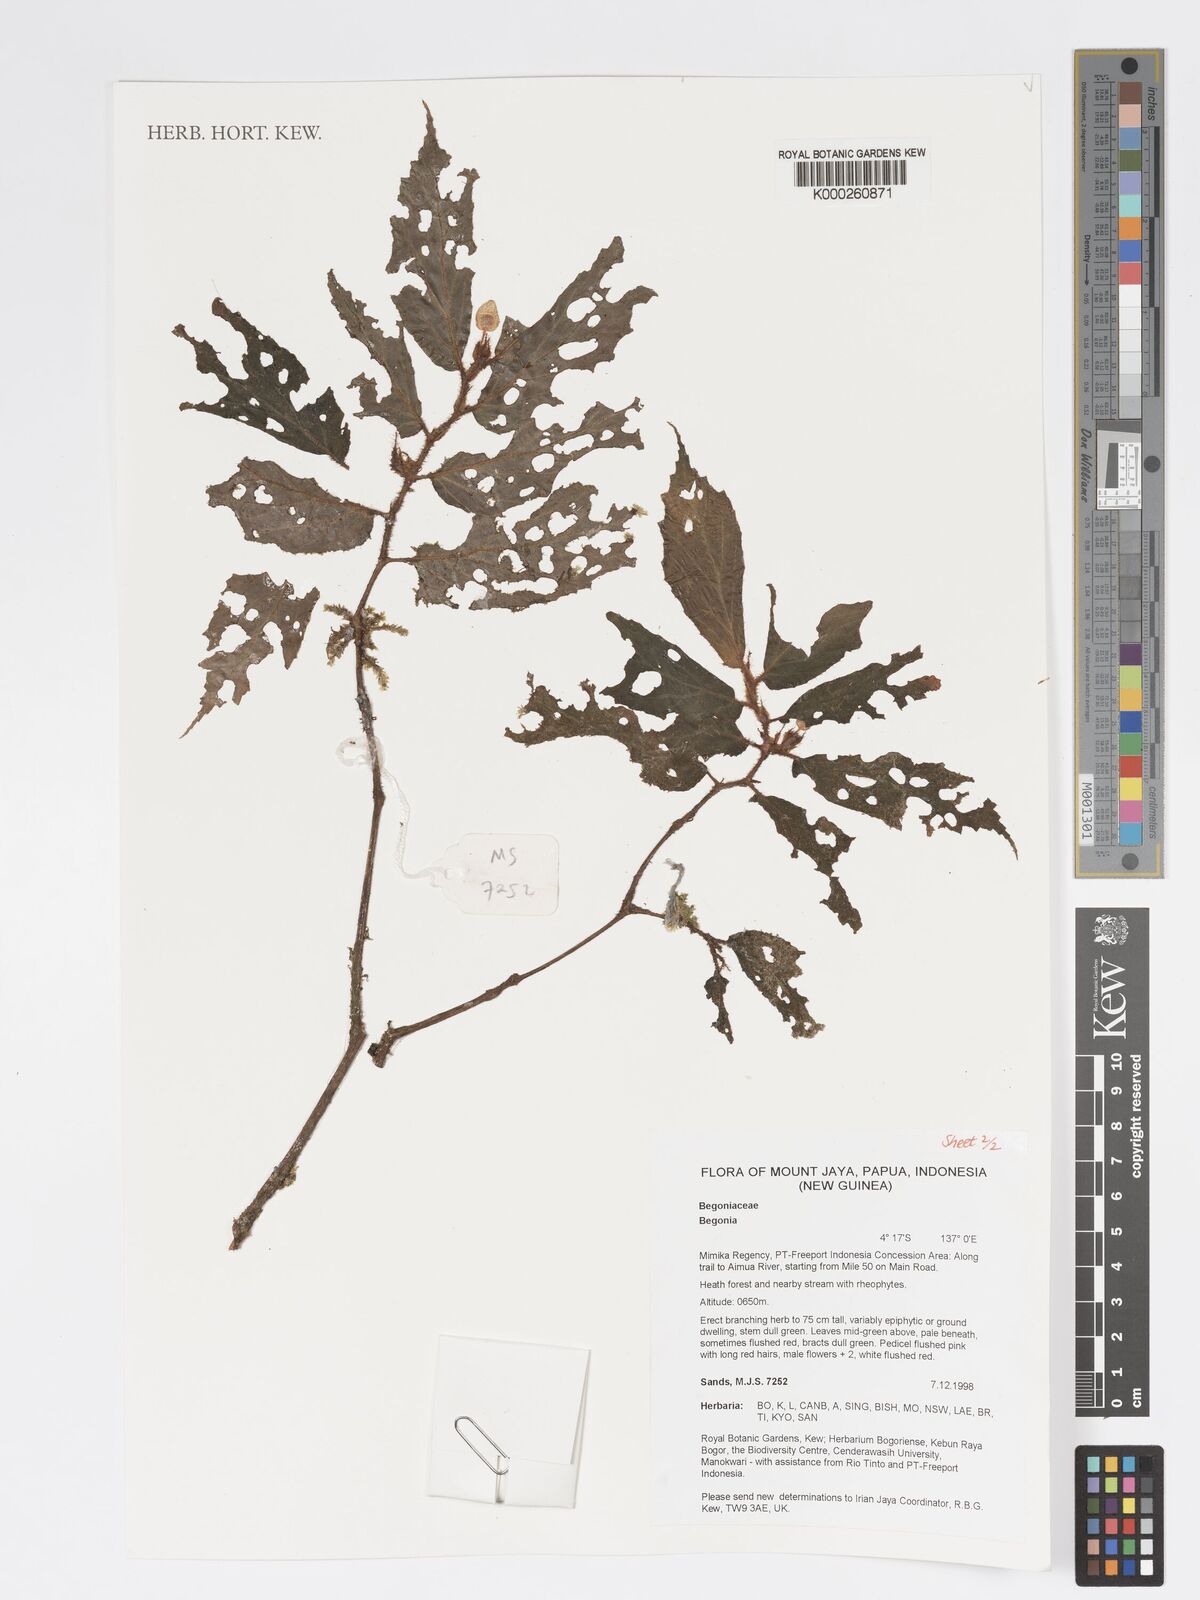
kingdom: Plantae
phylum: Tracheophyta
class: Magnoliopsida
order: Cucurbitales
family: Begoniaceae
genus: Begonia
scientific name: Begonia
